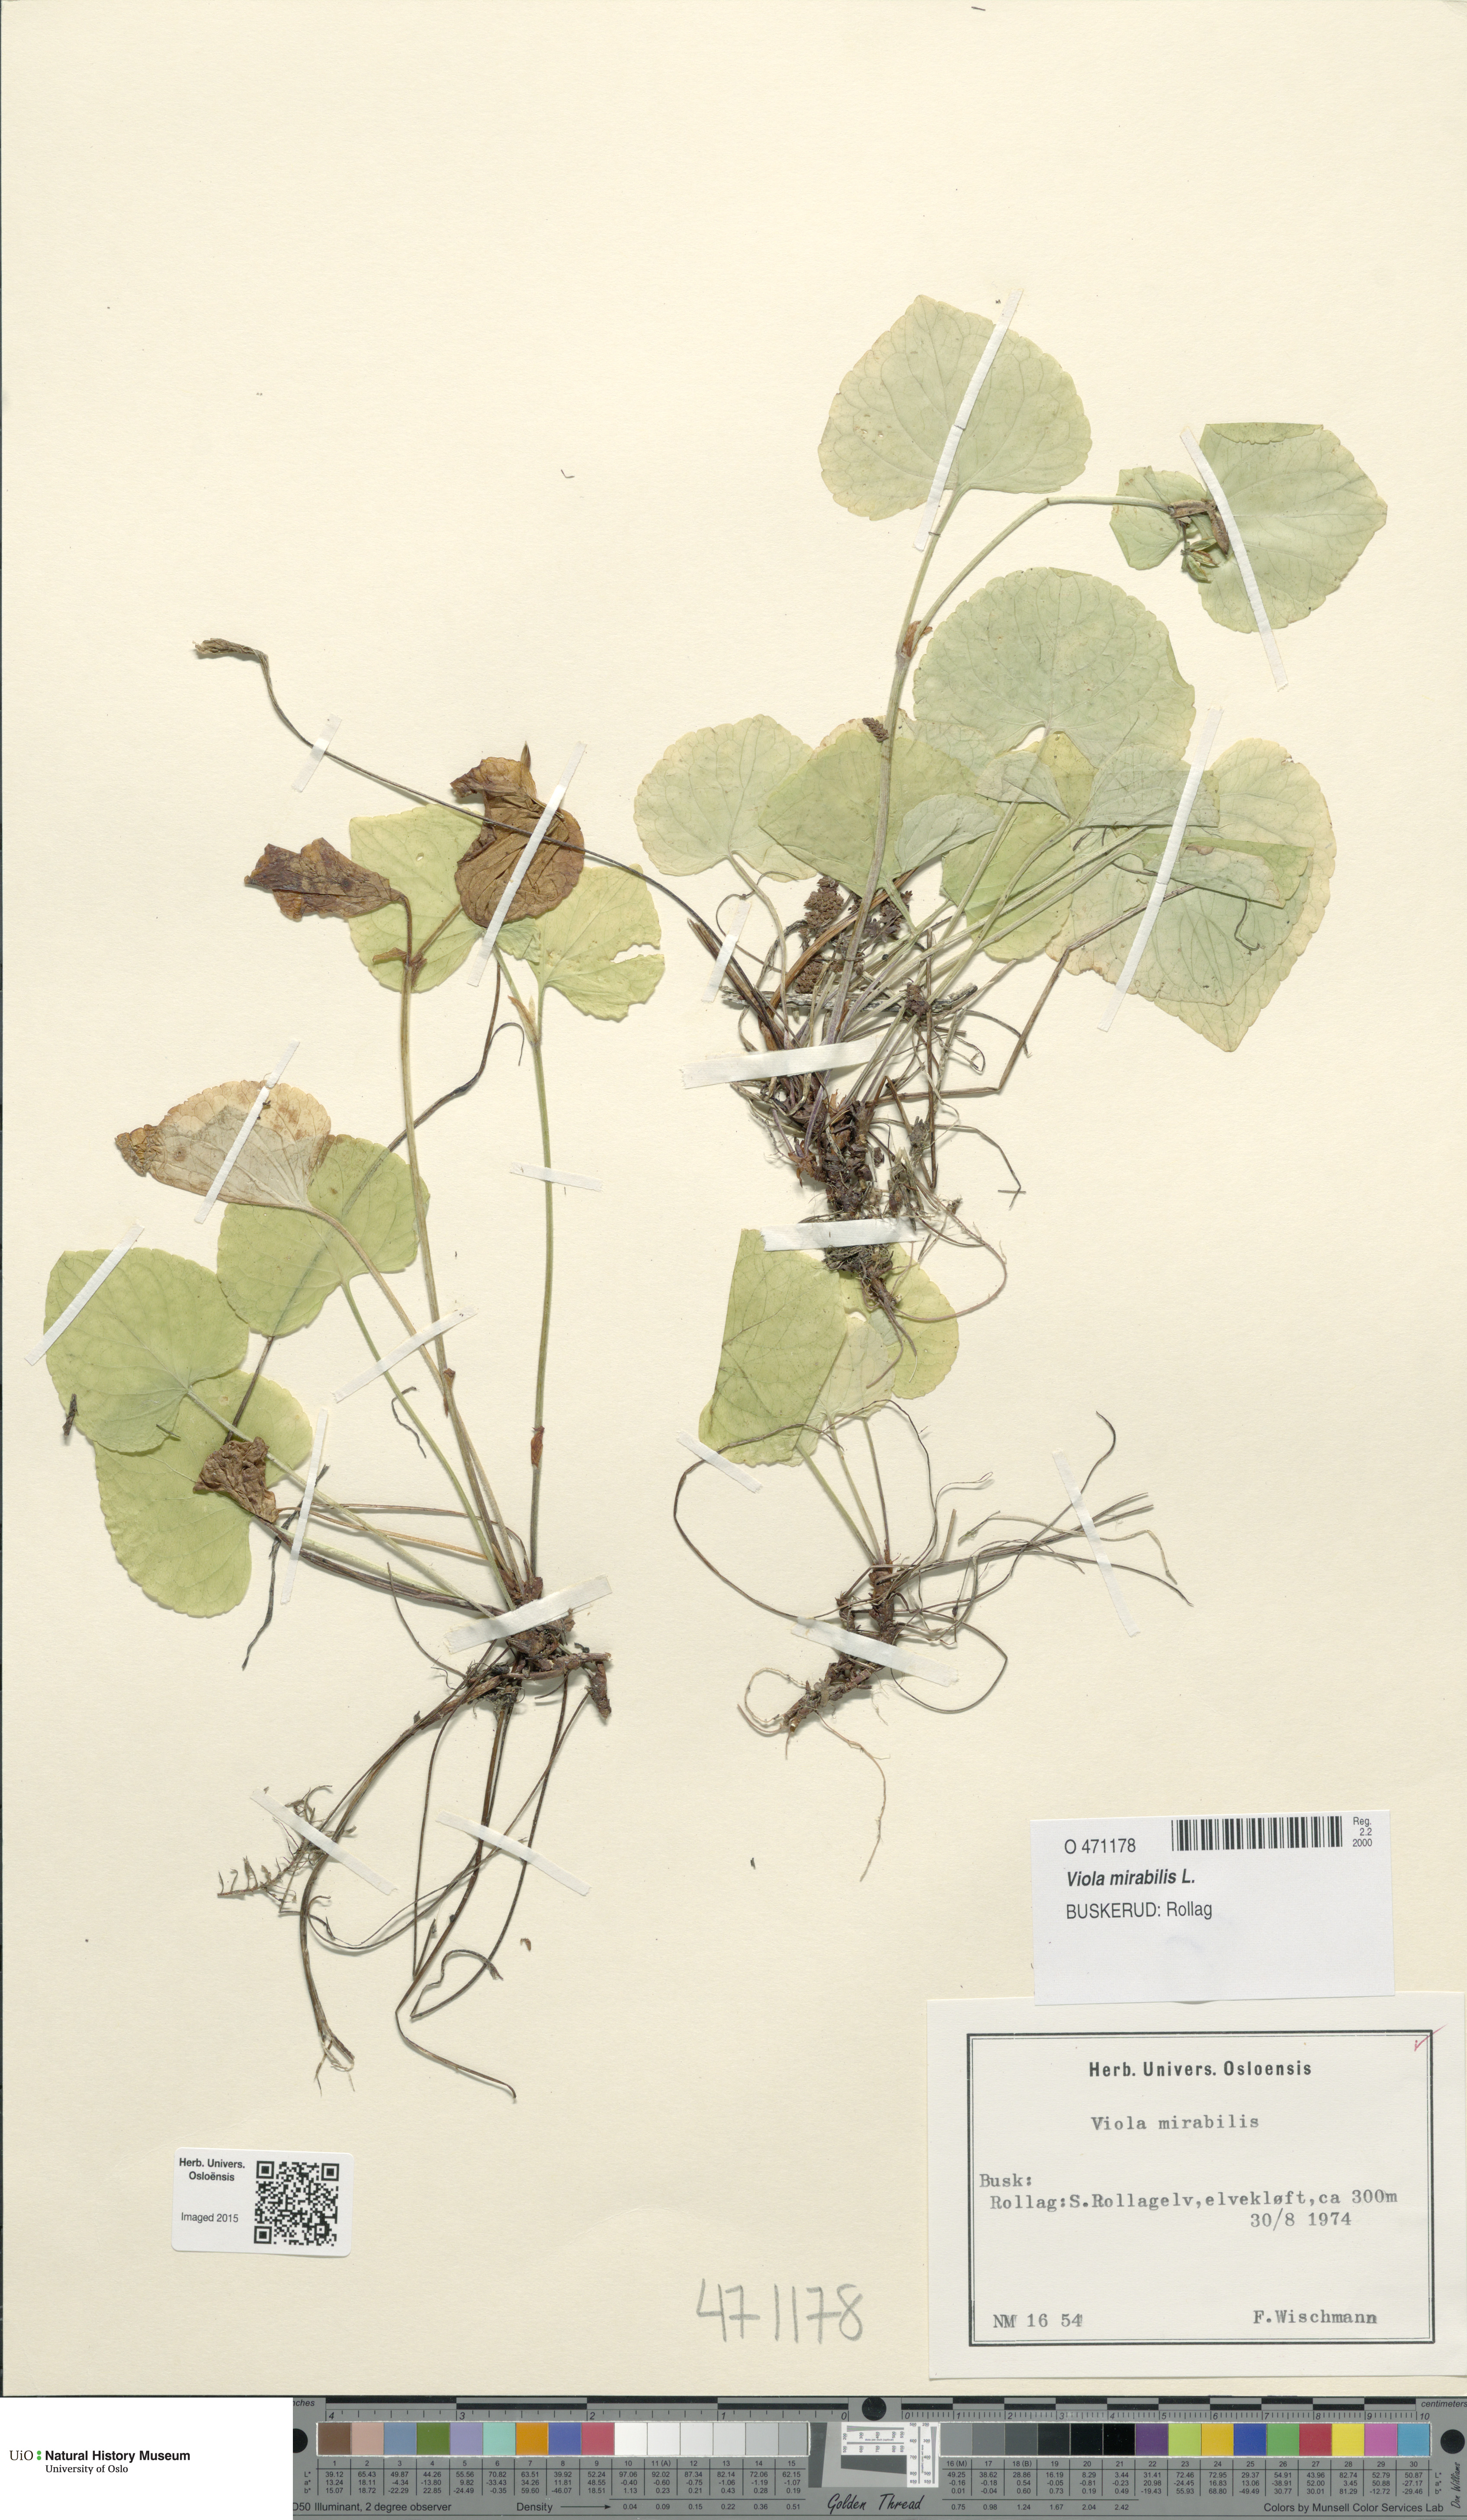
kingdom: Plantae
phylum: Tracheophyta
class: Magnoliopsida
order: Malpighiales
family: Violaceae
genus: Viola
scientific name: Viola mirabilis
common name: Wonder violet
